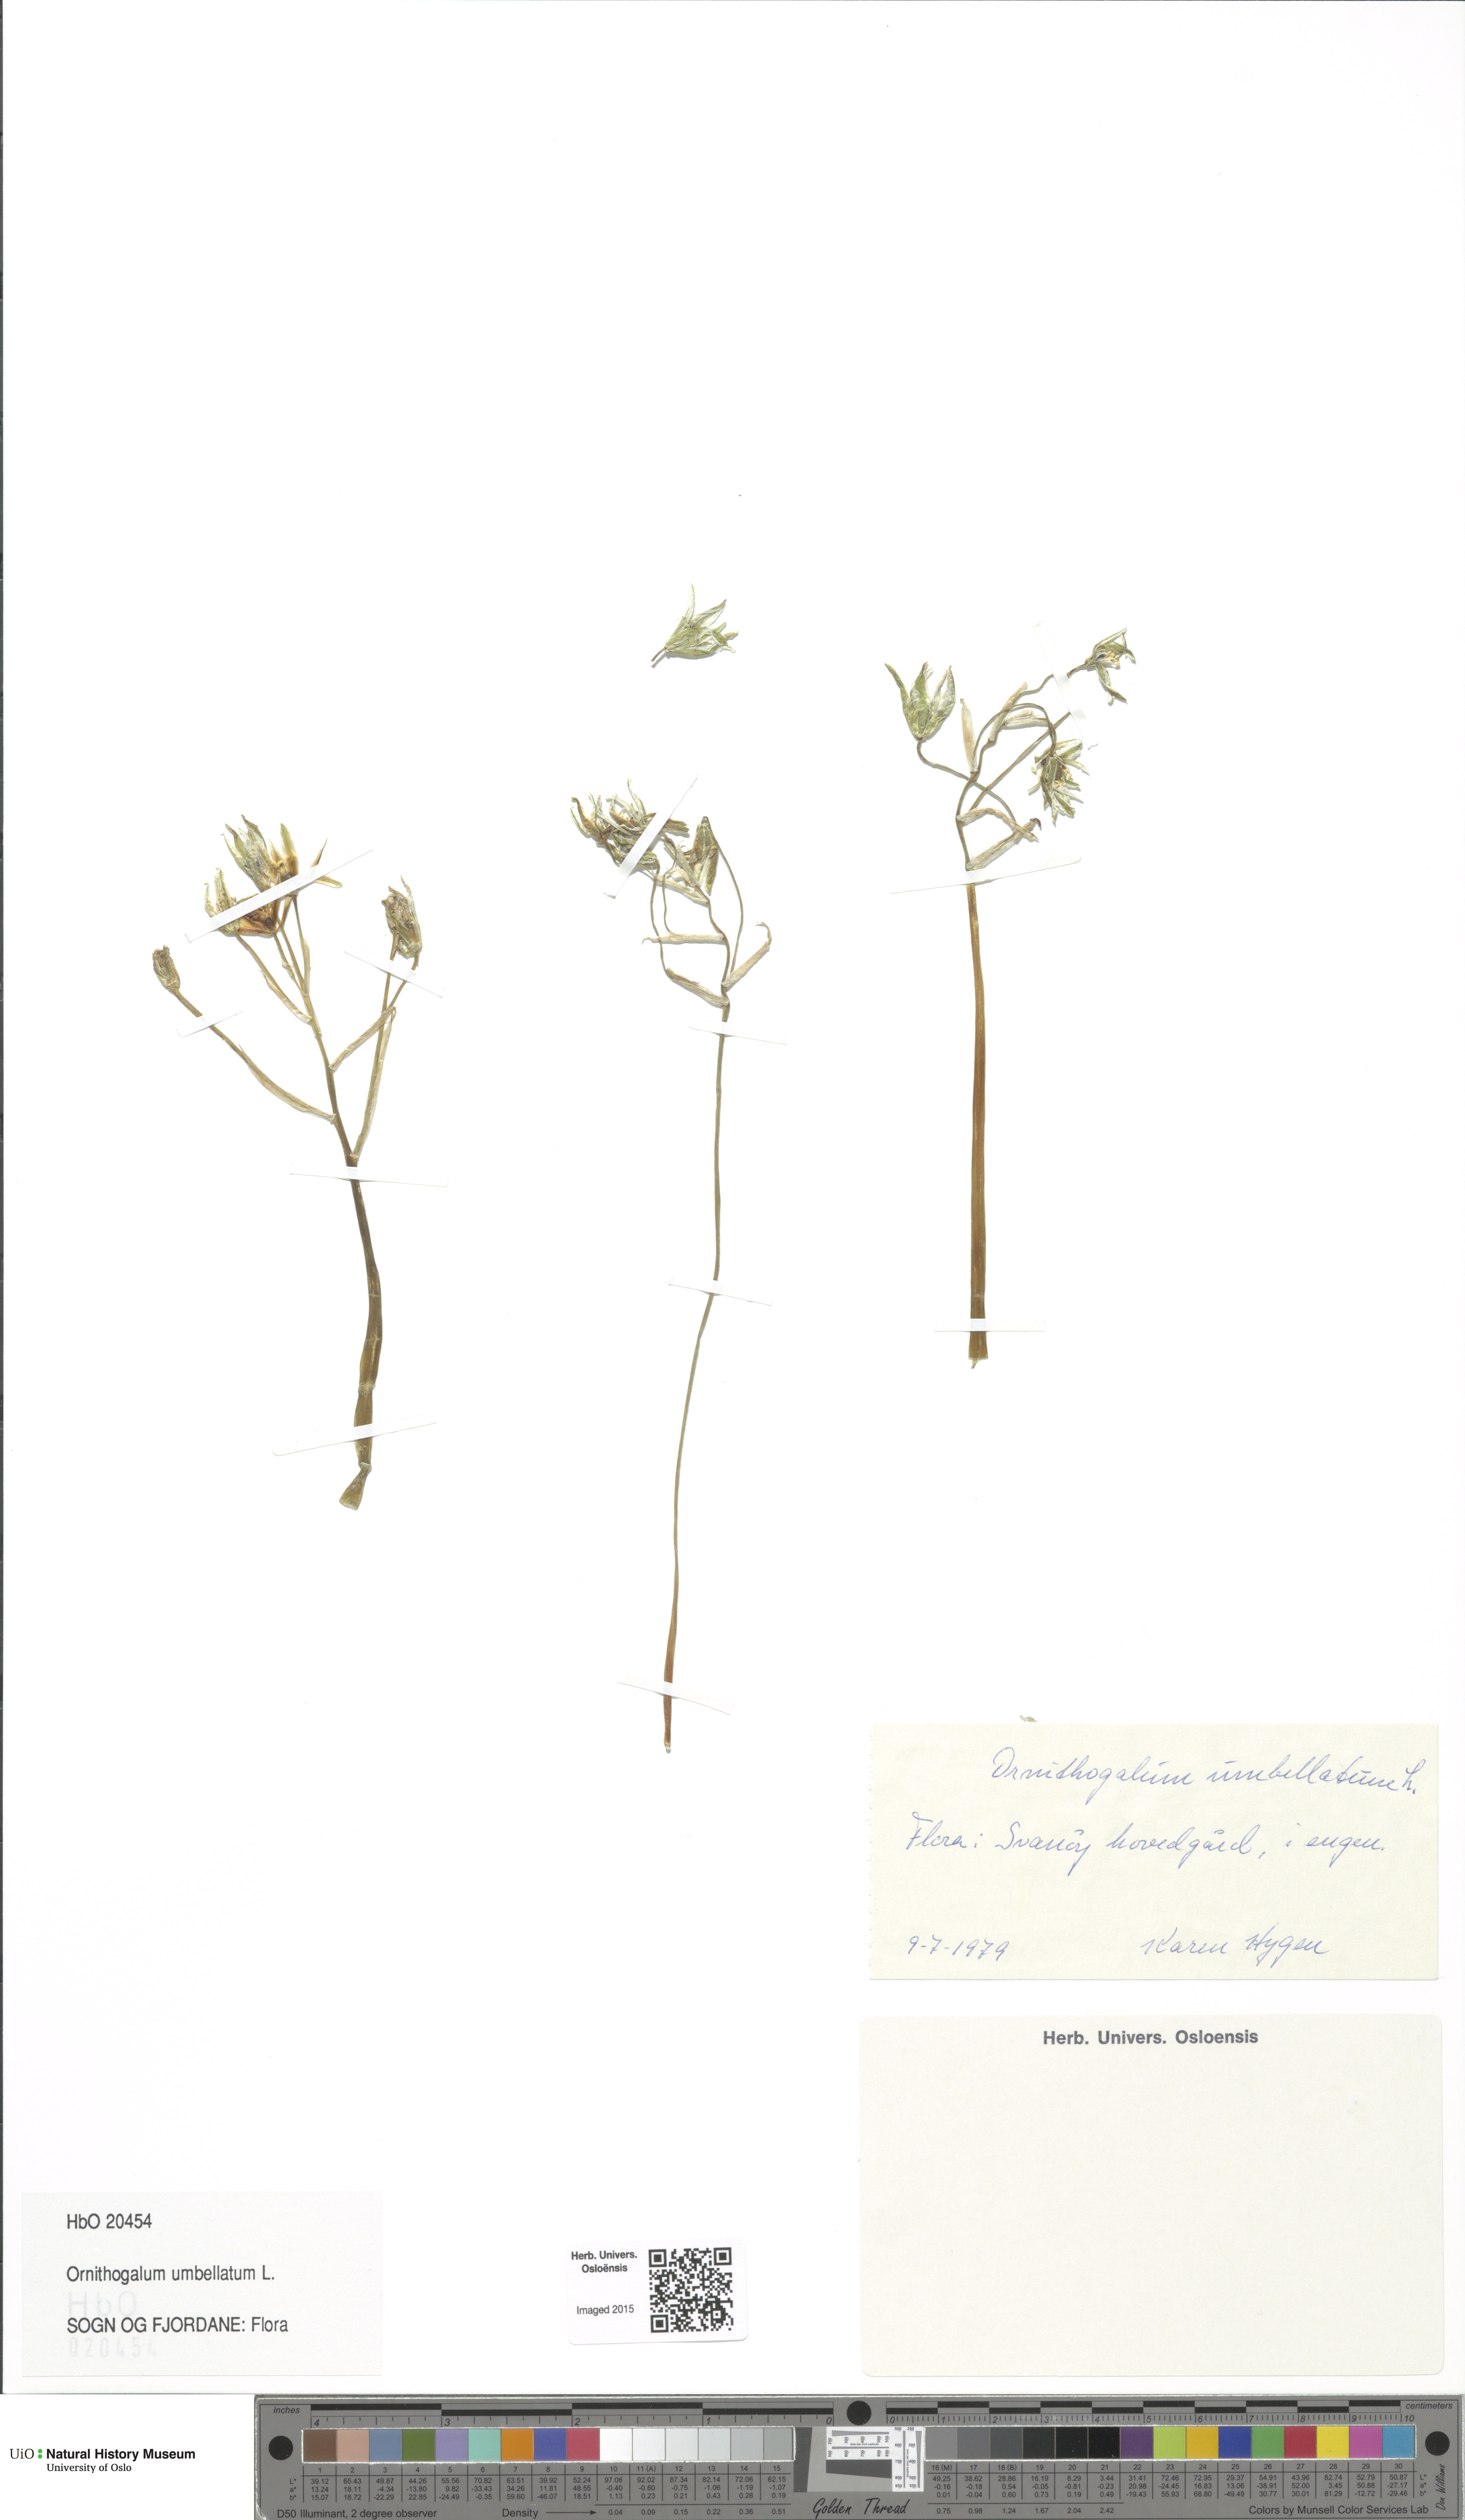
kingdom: Plantae
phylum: Tracheophyta
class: Liliopsida
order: Asparagales
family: Asparagaceae
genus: Ornithogalum
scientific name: Ornithogalum umbellatum
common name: Garden star-of-bethlehem
